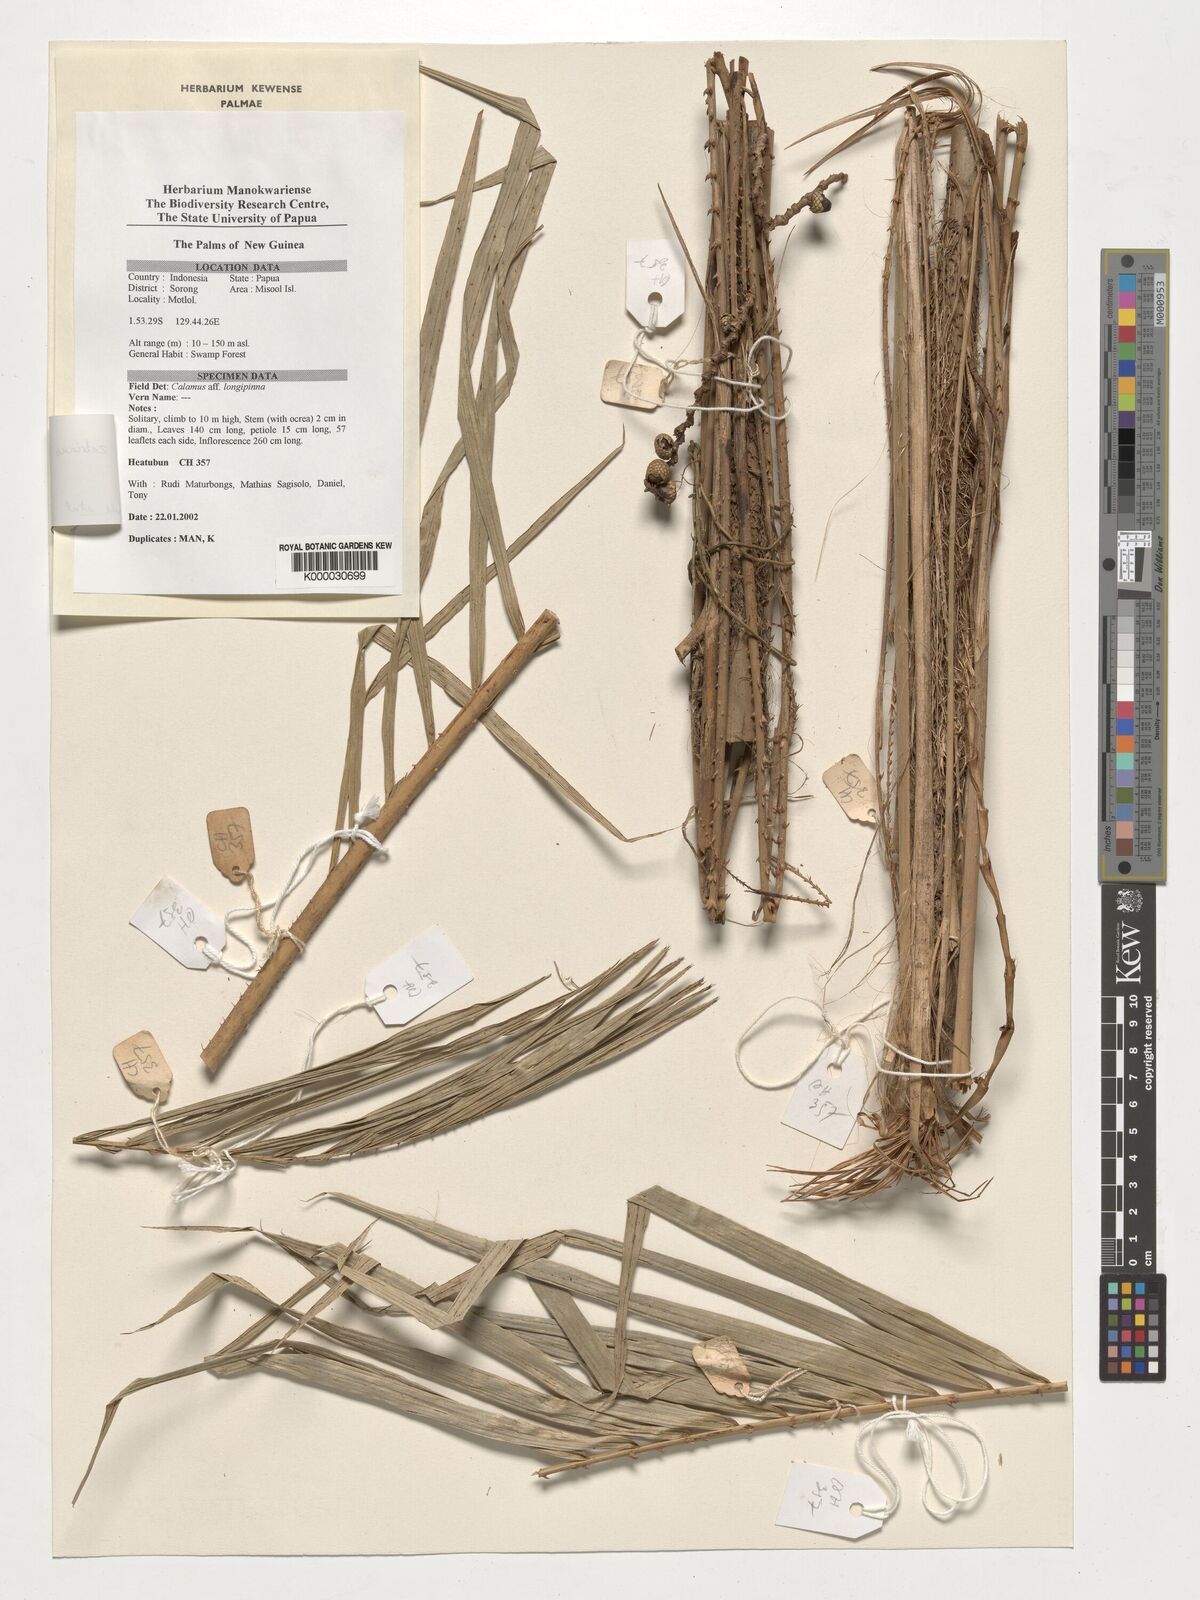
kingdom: Plantae
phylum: Tracheophyta
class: Liliopsida
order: Arecales
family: Arecaceae
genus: Calamus
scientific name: Calamus zebrinus
